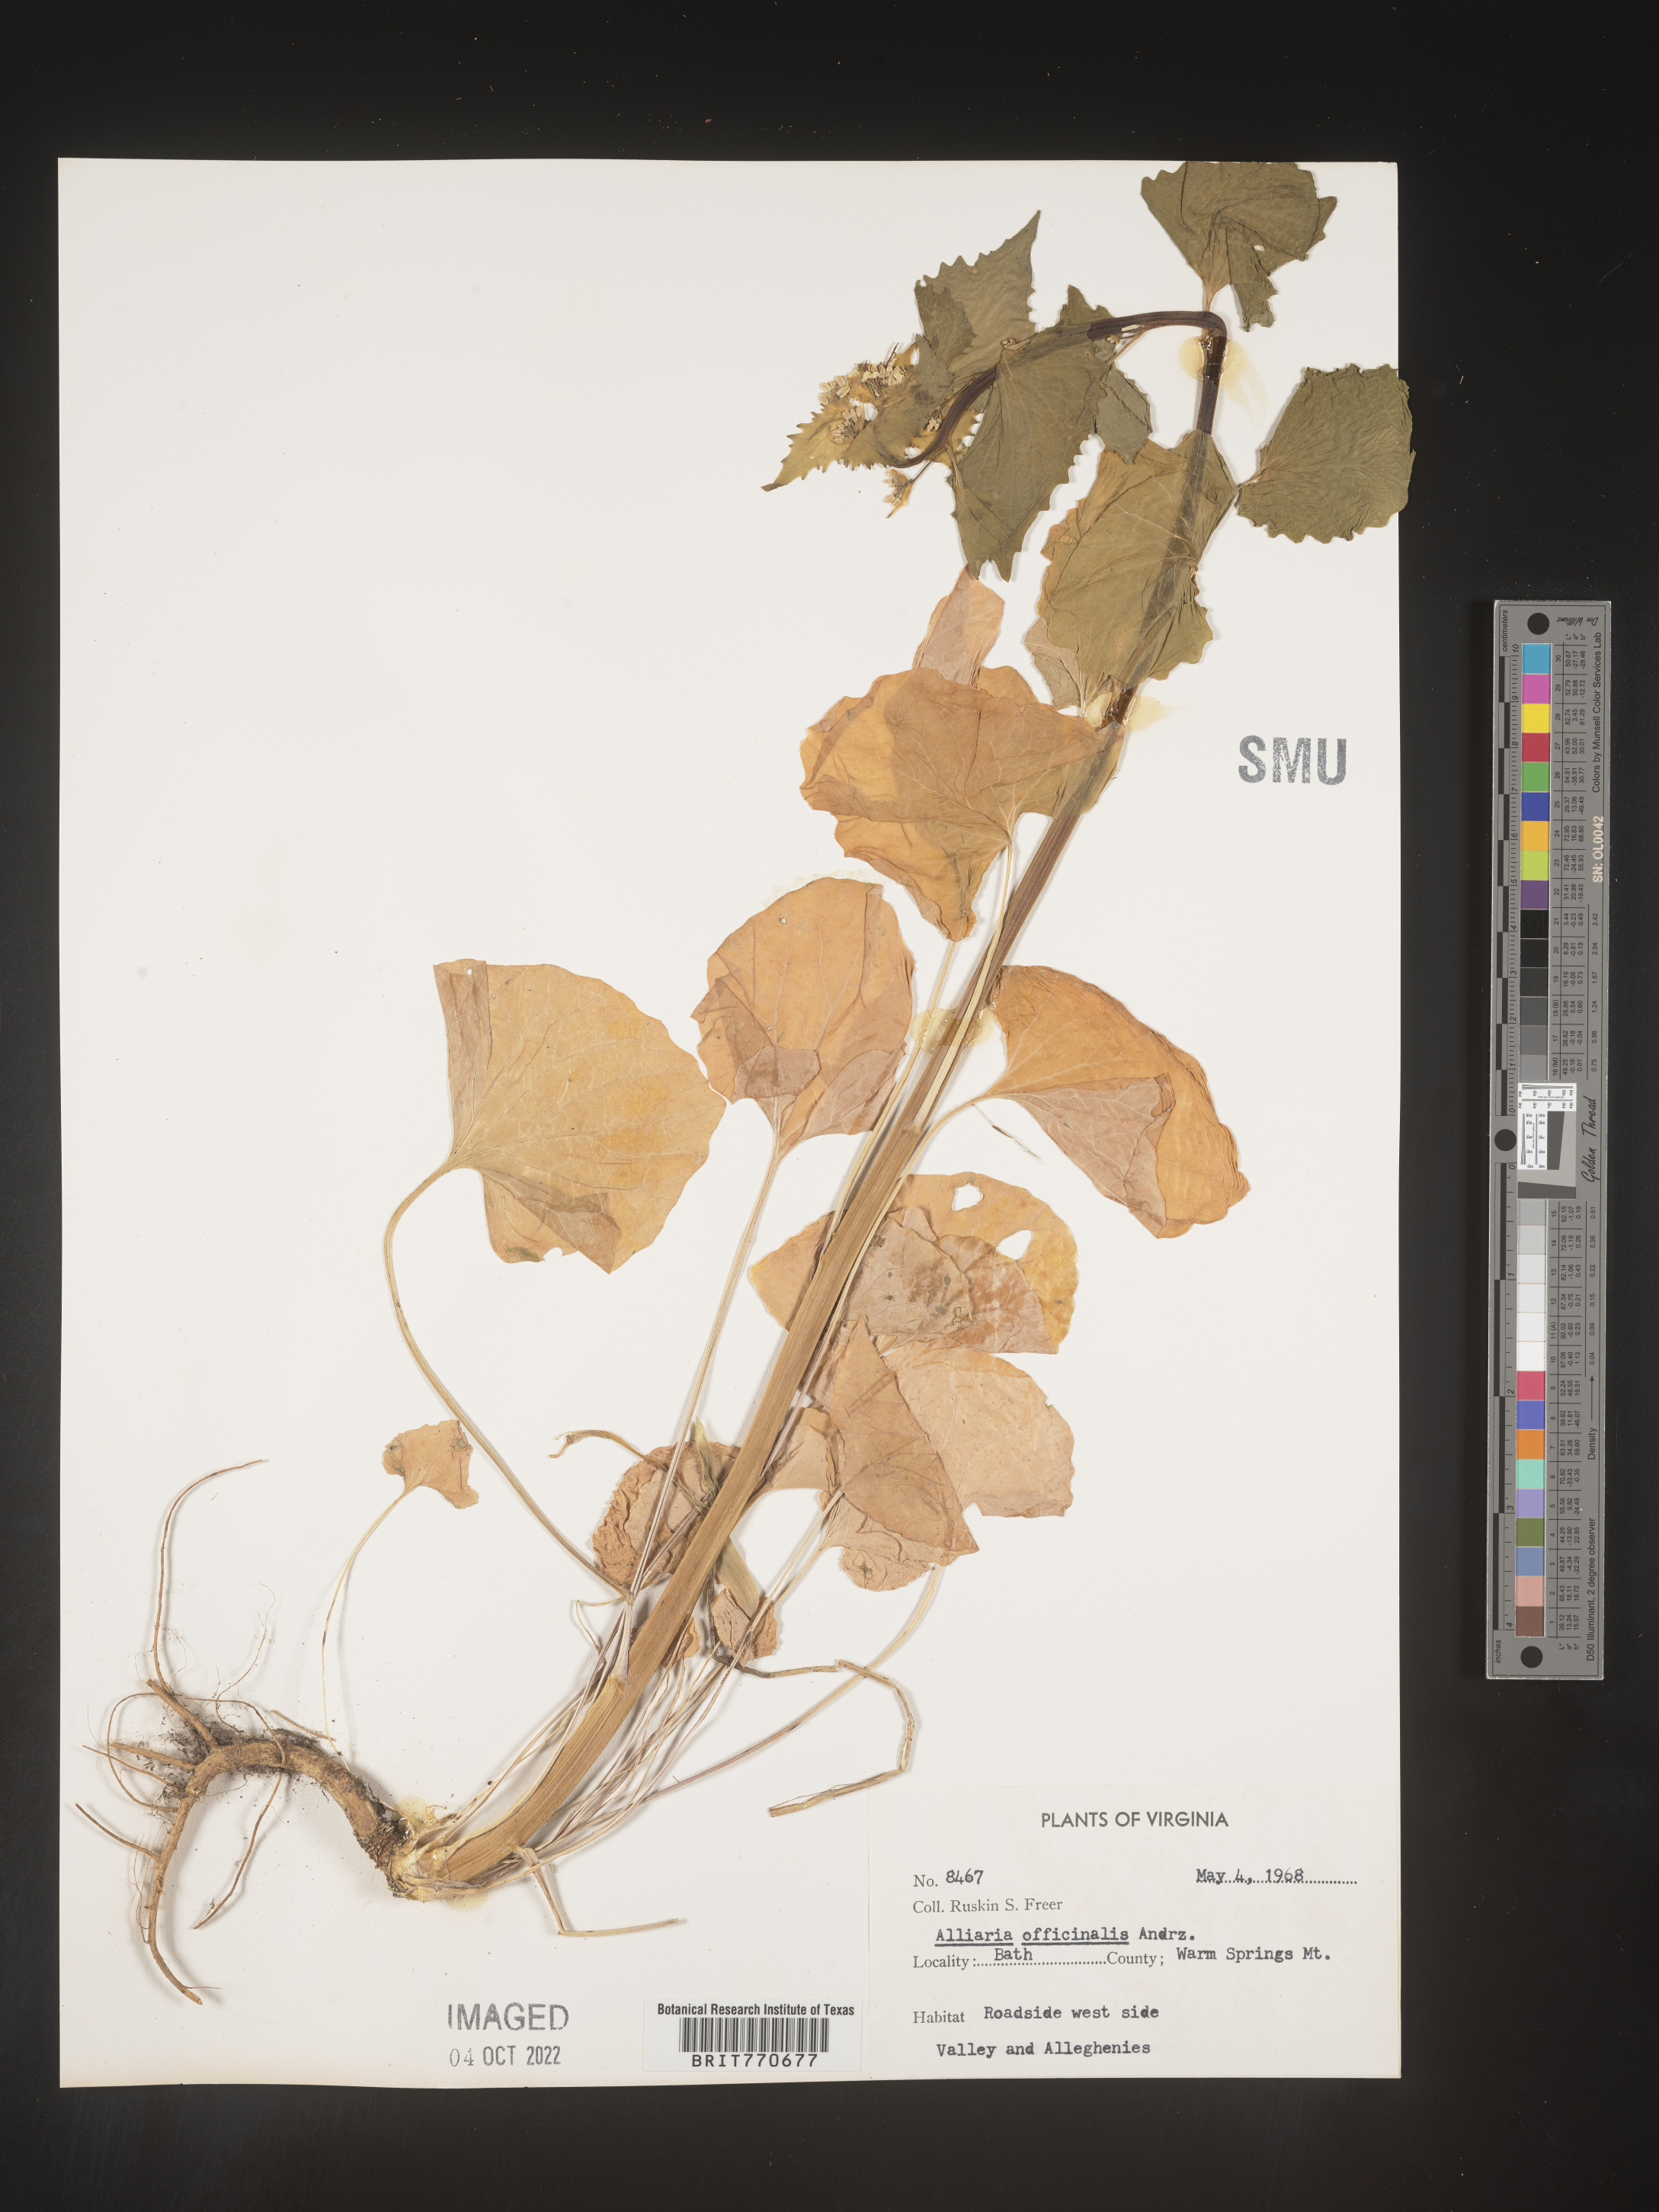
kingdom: Plantae
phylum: Tracheophyta
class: Magnoliopsida
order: Brassicales
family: Brassicaceae
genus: Alliaria
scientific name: Alliaria
